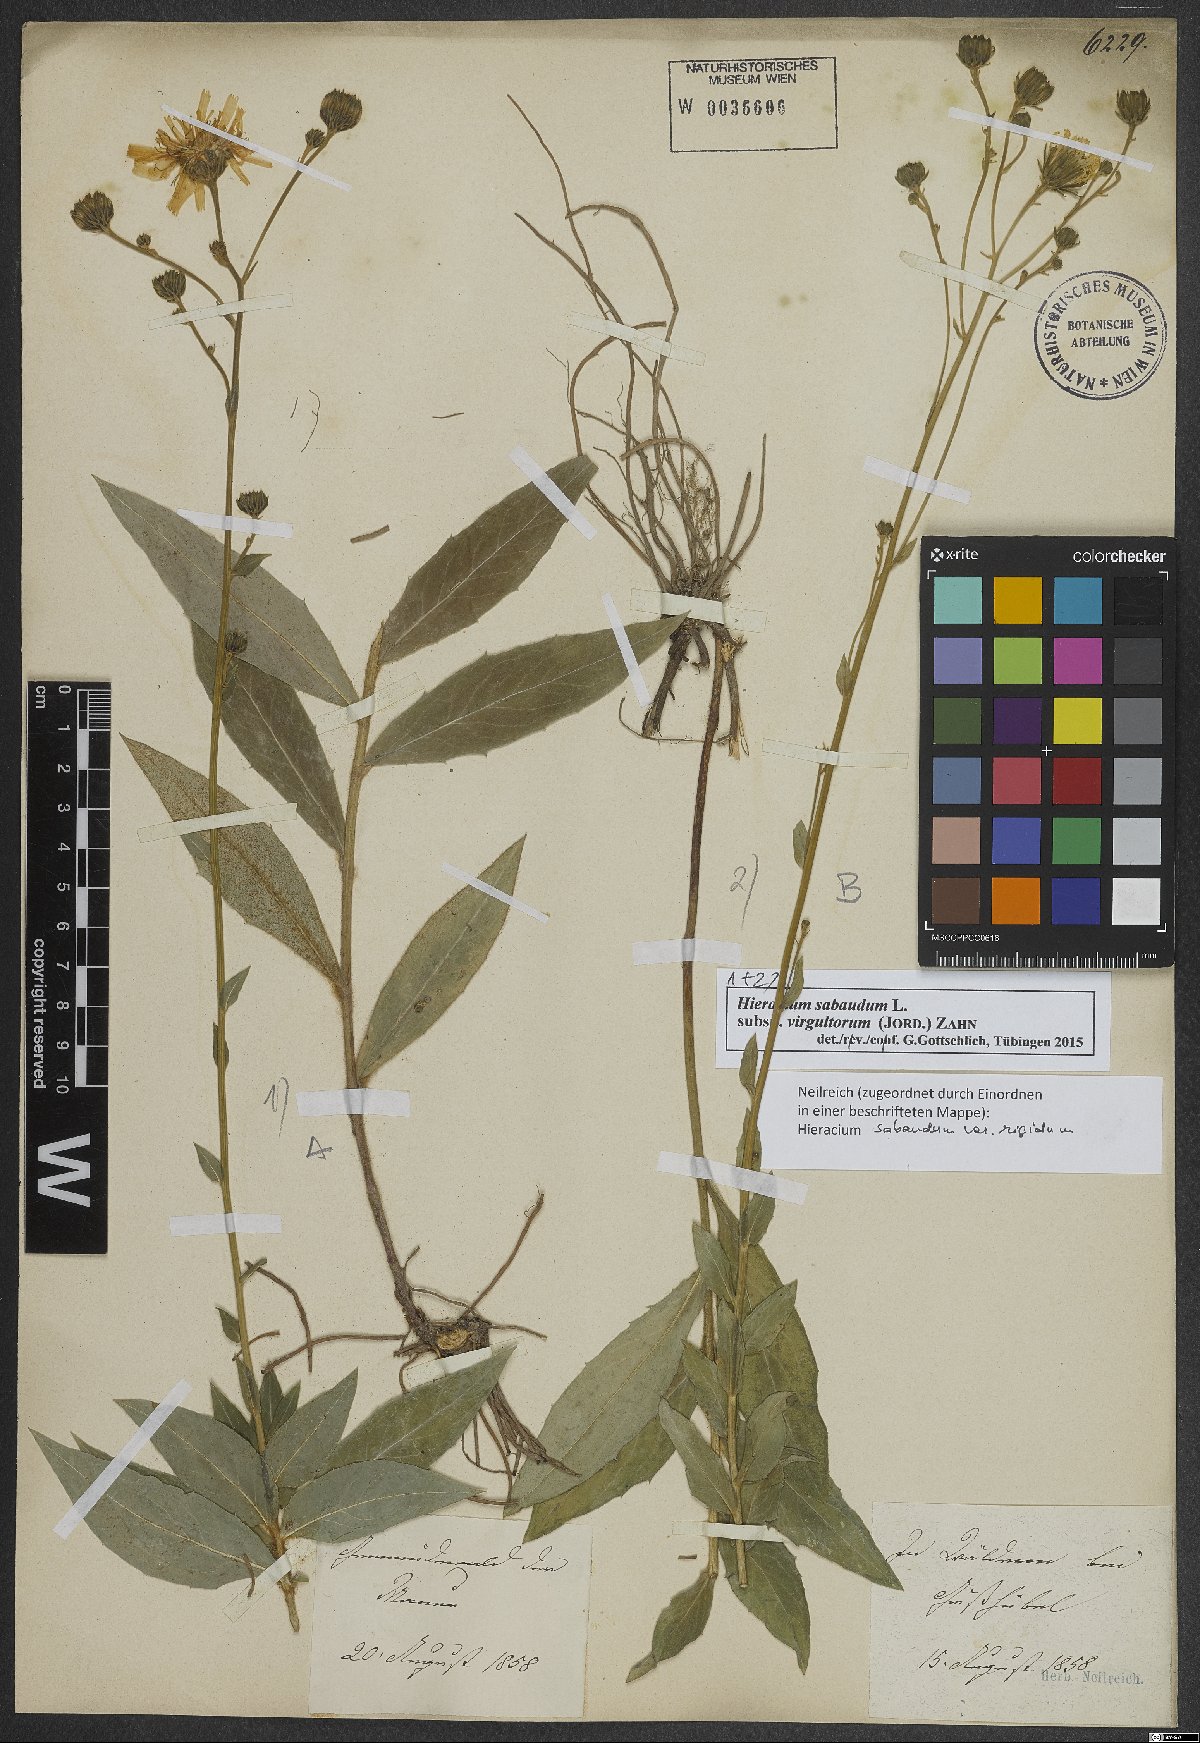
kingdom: Plantae
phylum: Tracheophyta
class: Magnoliopsida
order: Asterales
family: Asteraceae
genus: Hieracium
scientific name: Hieracium sabaudum
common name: New england hawkweed
